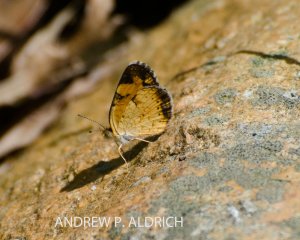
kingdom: Animalia
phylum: Arthropoda
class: Insecta
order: Lepidoptera
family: Nymphalidae
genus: Phyciodes
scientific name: Phyciodes
